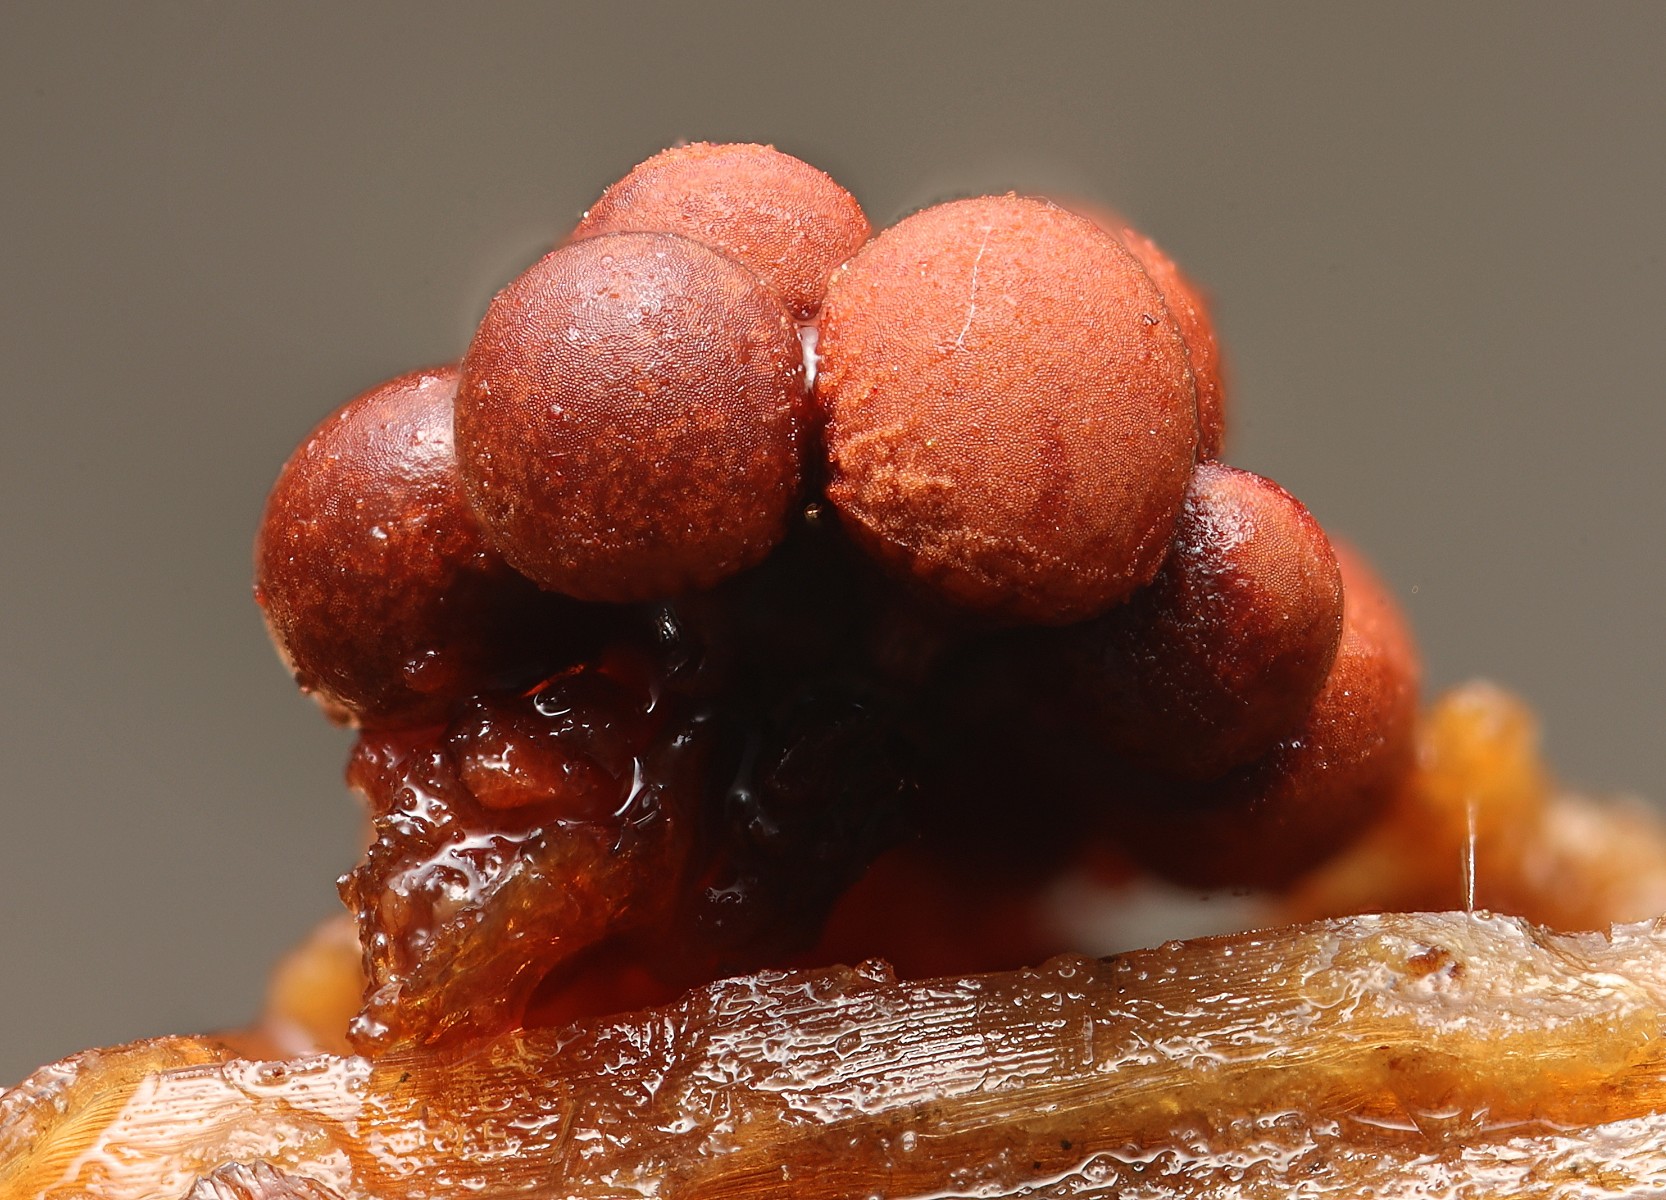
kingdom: Protozoa
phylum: Mycetozoa
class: Myxomycetes
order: Trichiales
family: Arcyriaceae
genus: Arcyria
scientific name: Arcyria ferruginea
